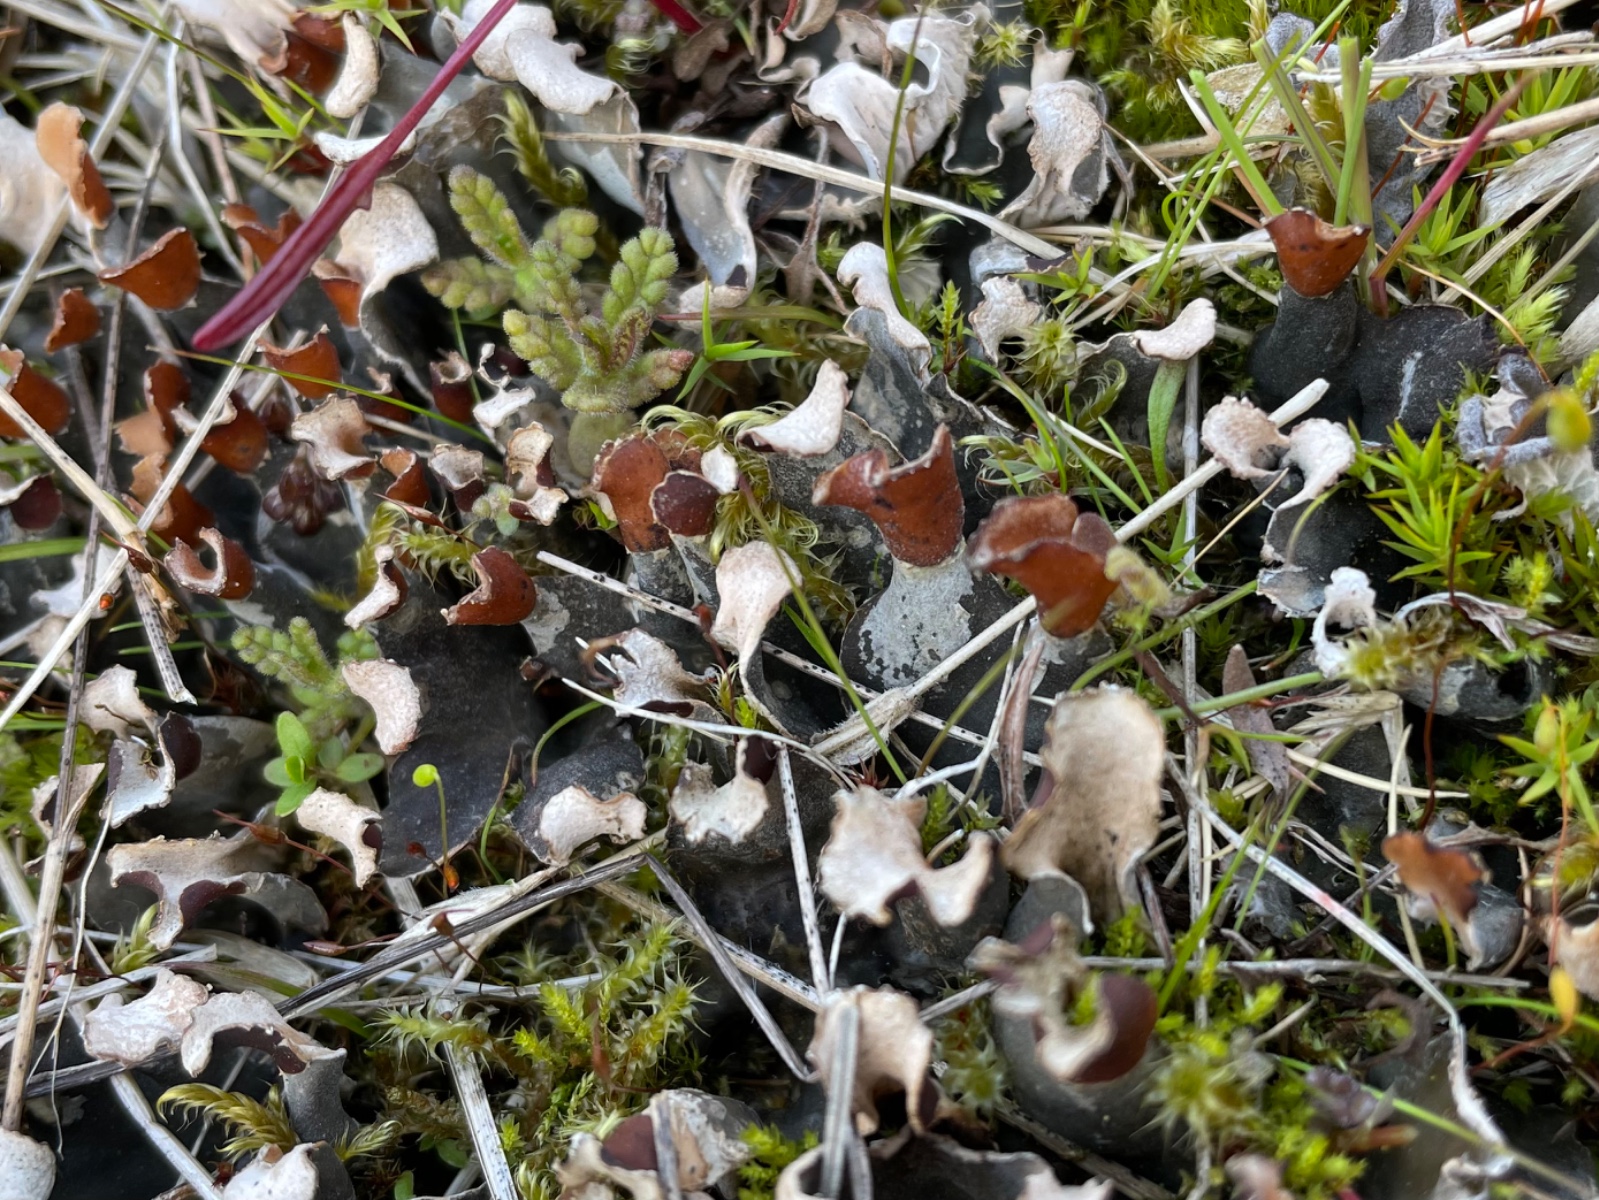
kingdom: Fungi
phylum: Ascomycota
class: Lecanoromycetes
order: Peltigerales
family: Peltigeraceae
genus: Peltigera
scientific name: Peltigera didactyla
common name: liden skjoldlav
